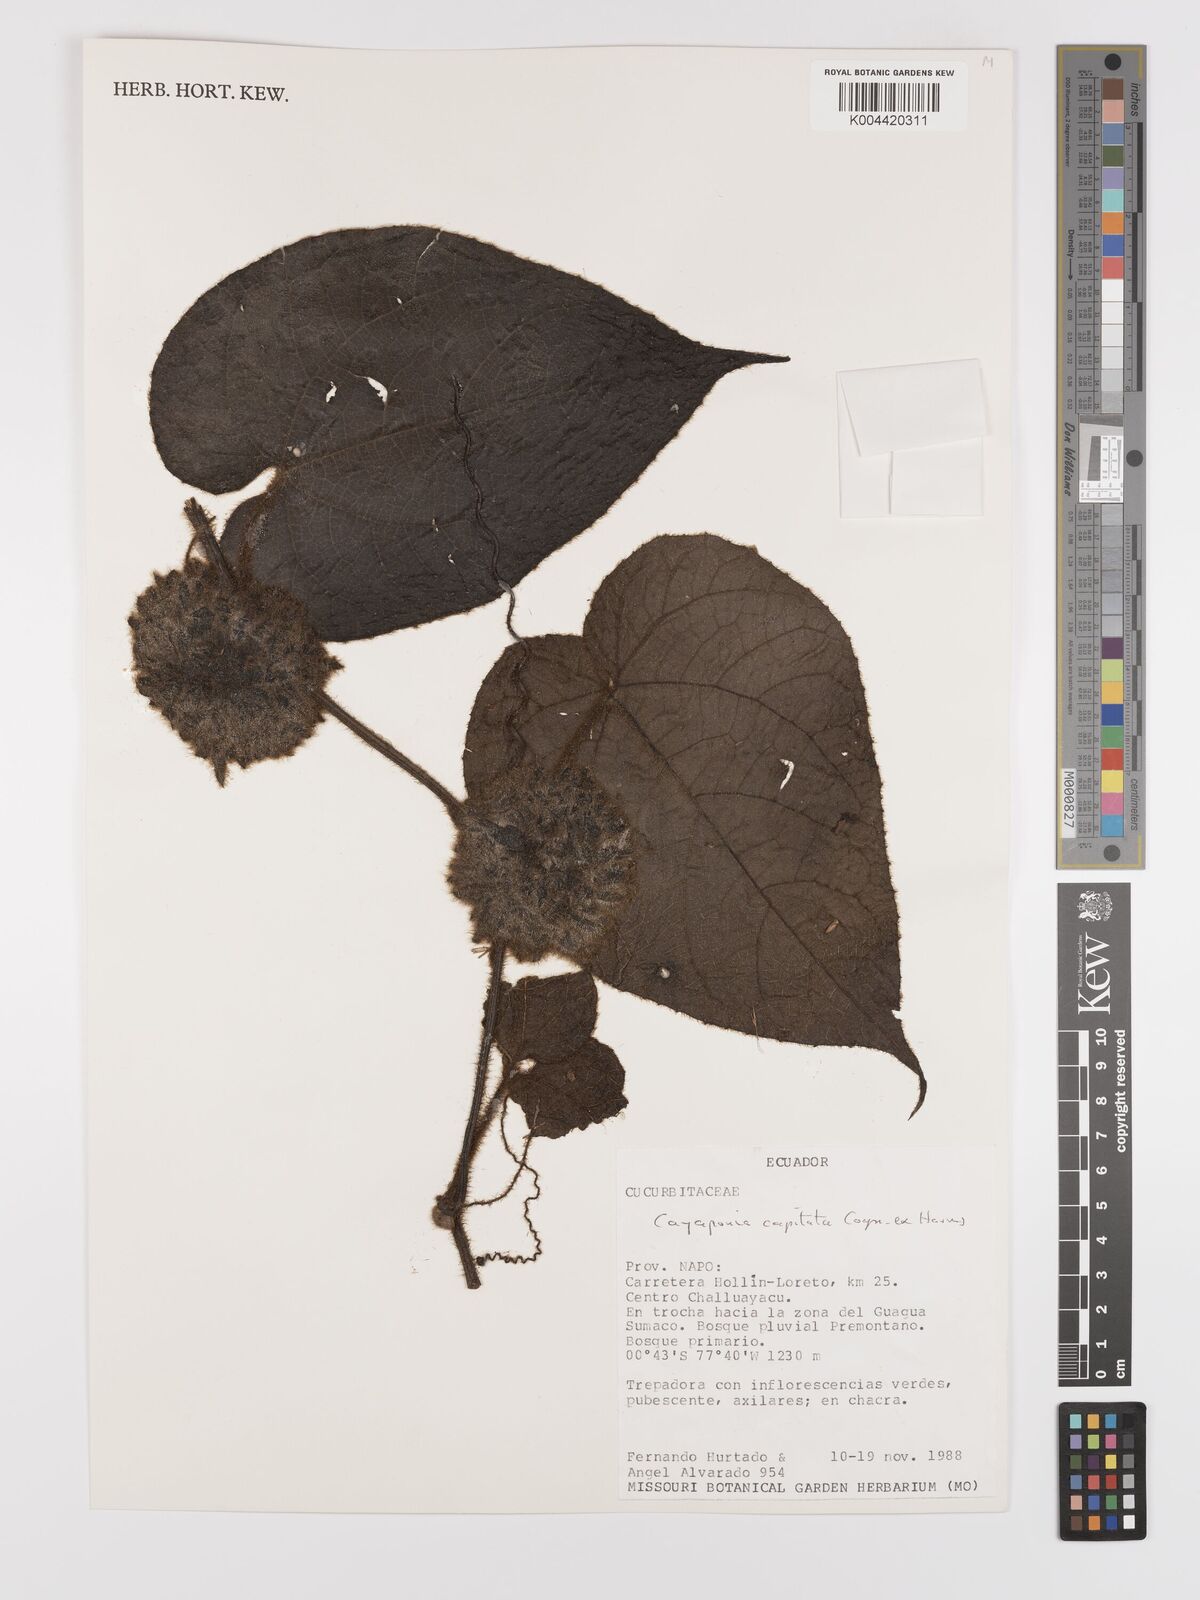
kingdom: Plantae
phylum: Tracheophyta
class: Magnoliopsida
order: Cucurbitales
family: Cucurbitaceae
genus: Cayaponia
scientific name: Cayaponia capitata
